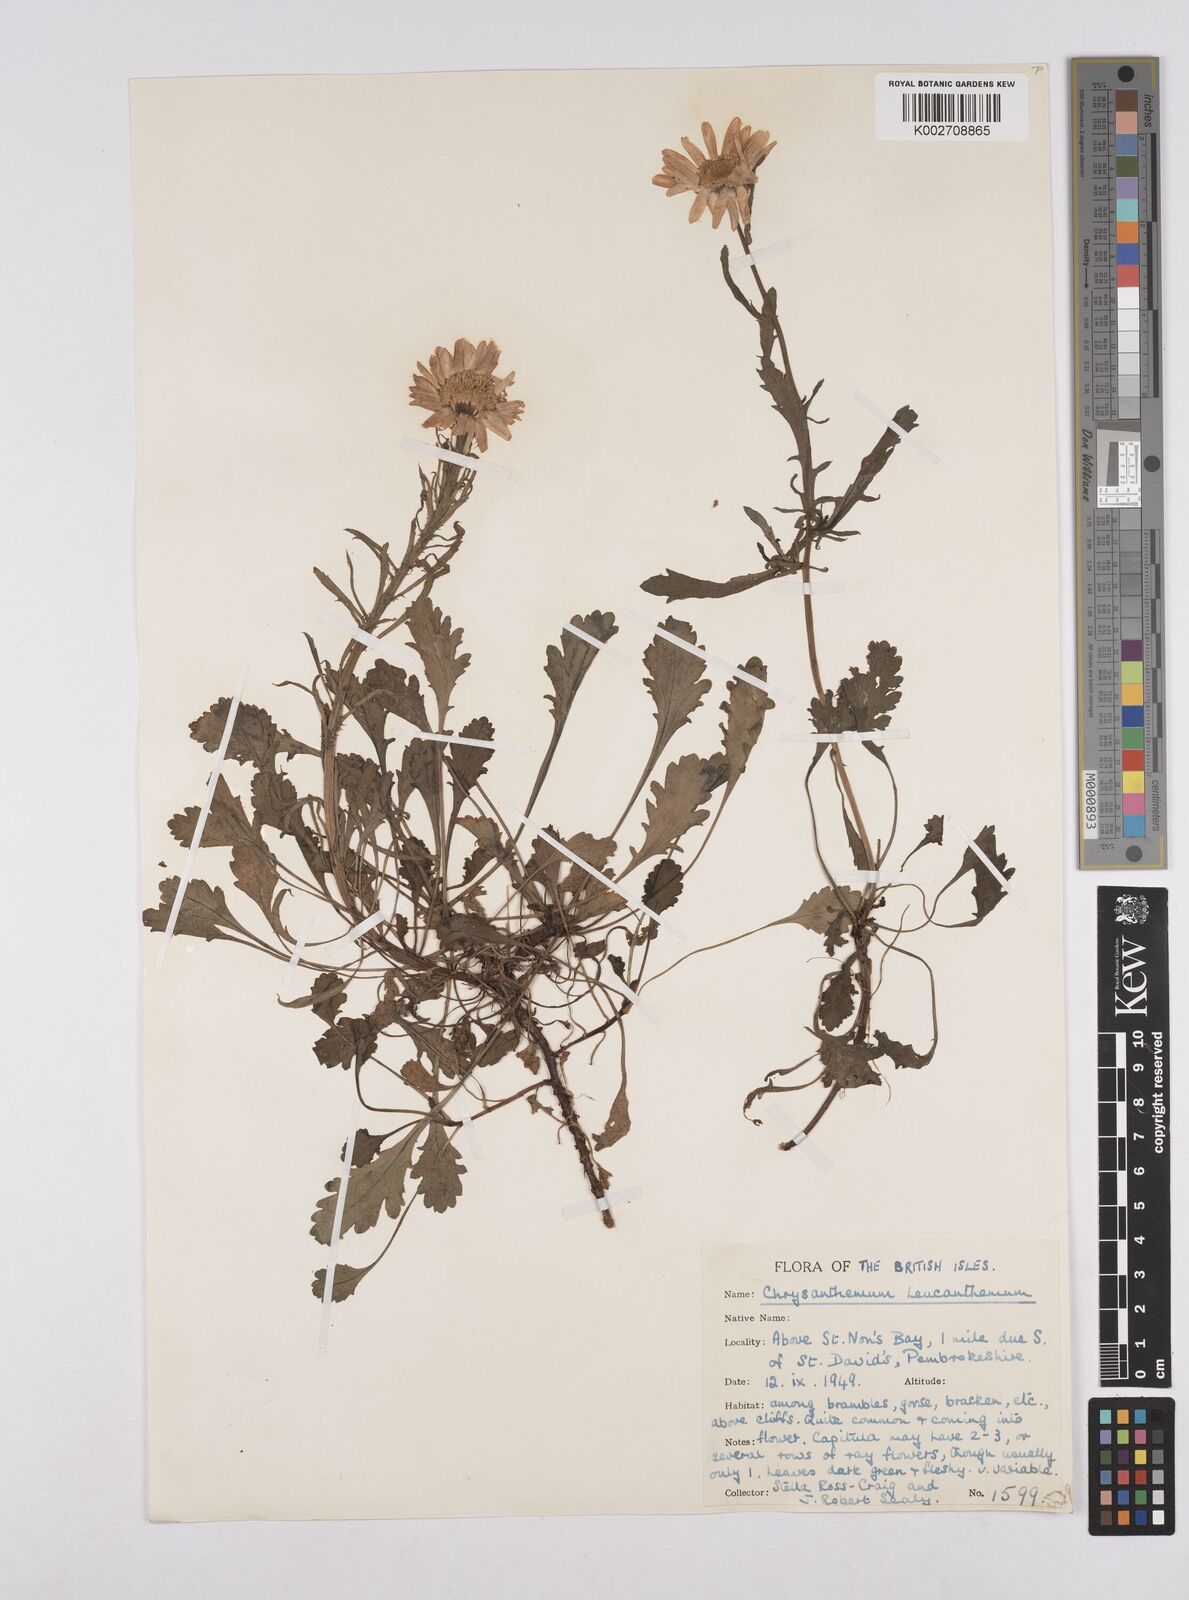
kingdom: Plantae
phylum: Tracheophyta
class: Magnoliopsida
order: Asterales
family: Asteraceae
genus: Leucanthemum
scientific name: Leucanthemum
